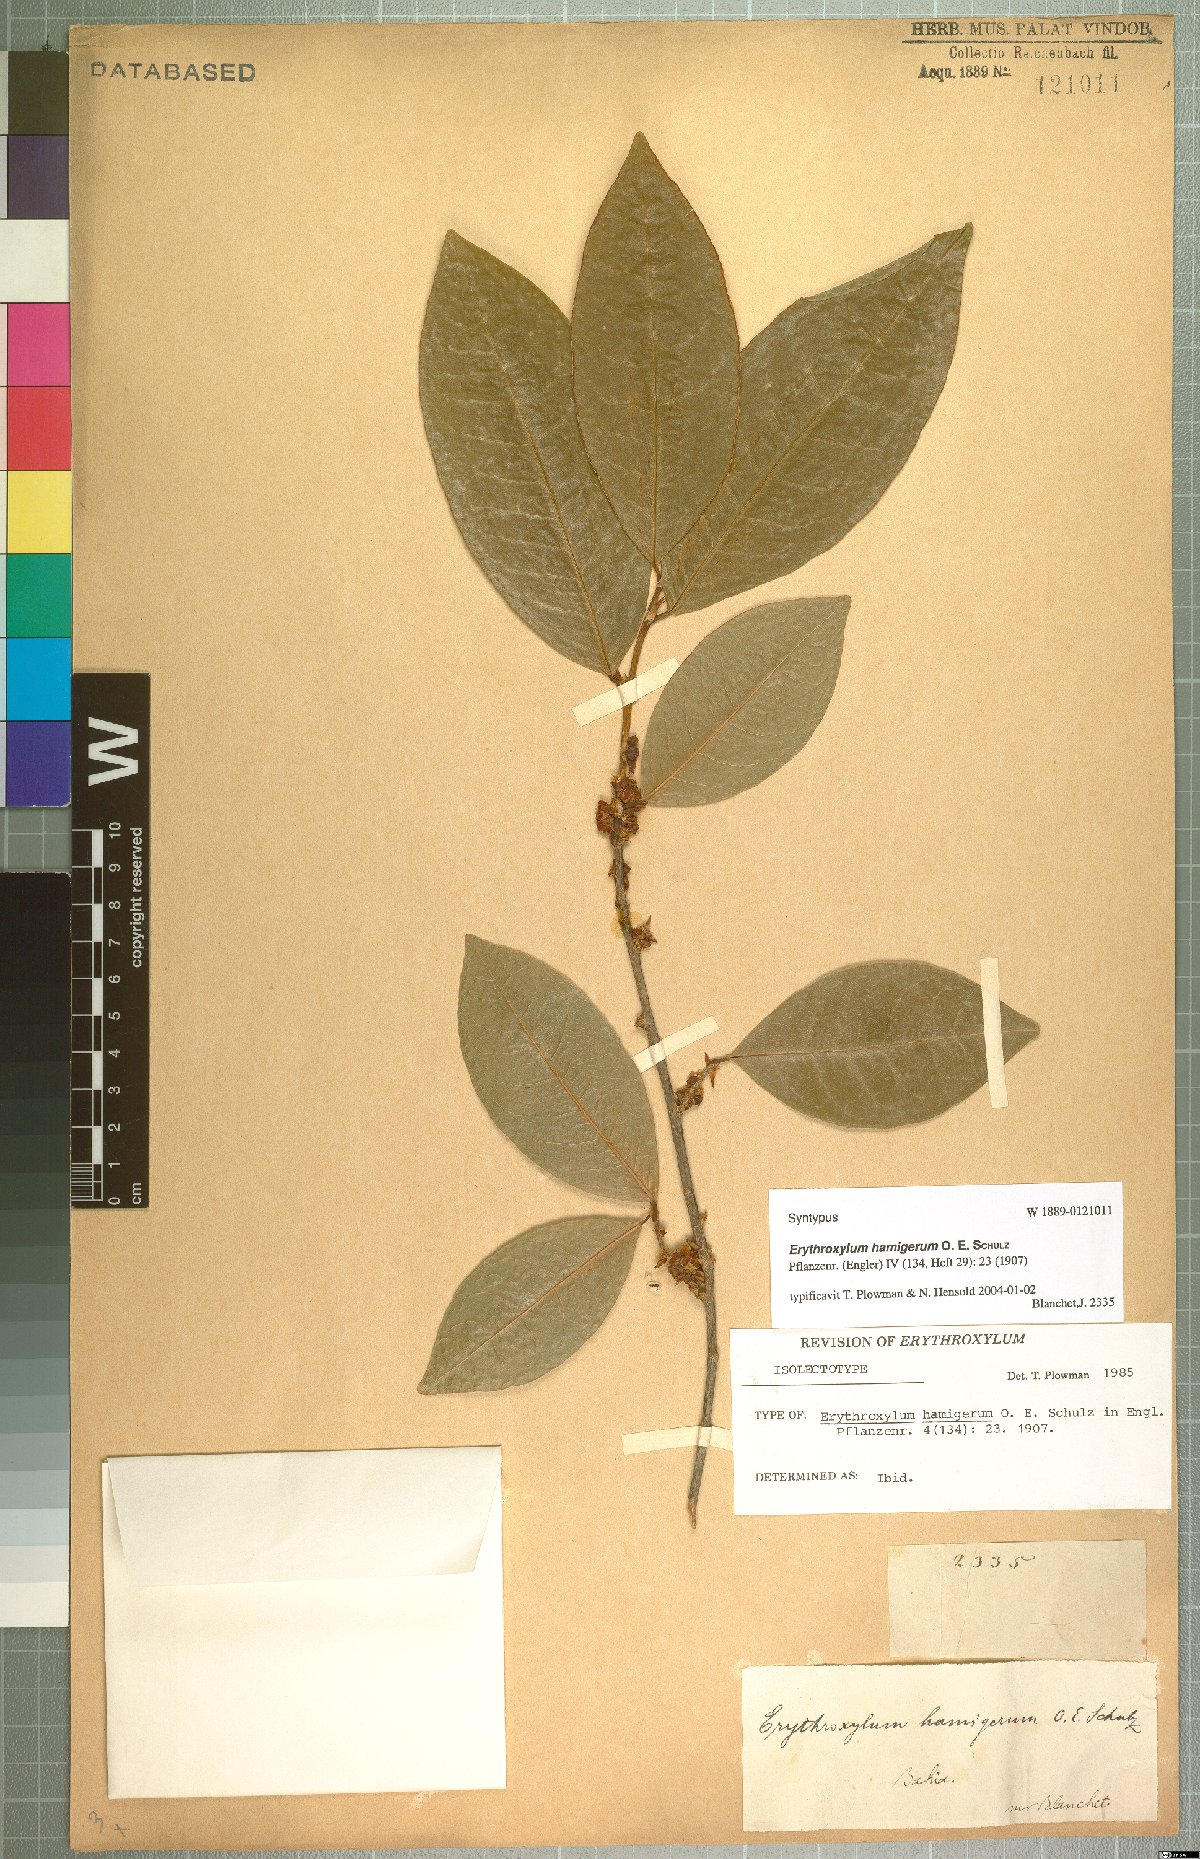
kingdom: Plantae
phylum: Tracheophyta
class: Magnoliopsida
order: Malpighiales
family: Erythroxylaceae
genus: Erythroxylum
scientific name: Erythroxylum hamigerum
